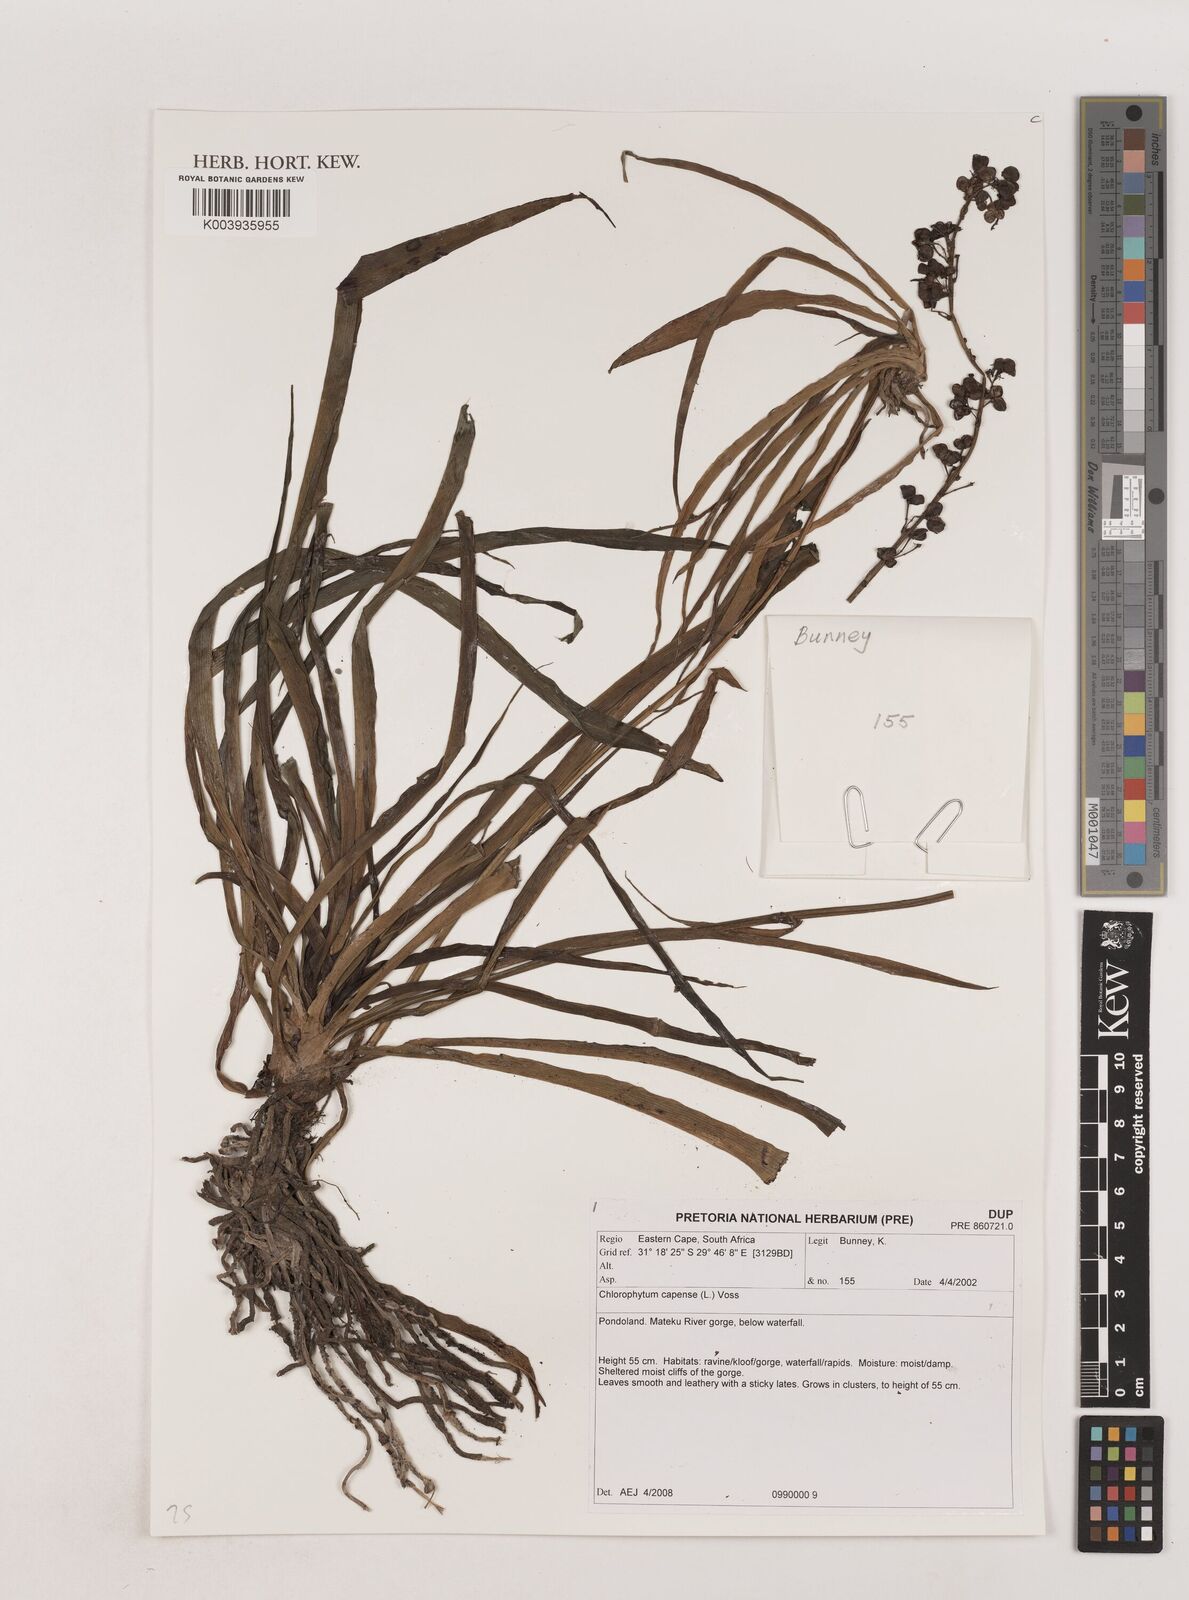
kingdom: Plantae
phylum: Tracheophyta
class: Liliopsida
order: Asparagales
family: Asparagaceae
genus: Chlorophytum
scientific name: Chlorophytum capense
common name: Bracketplant
